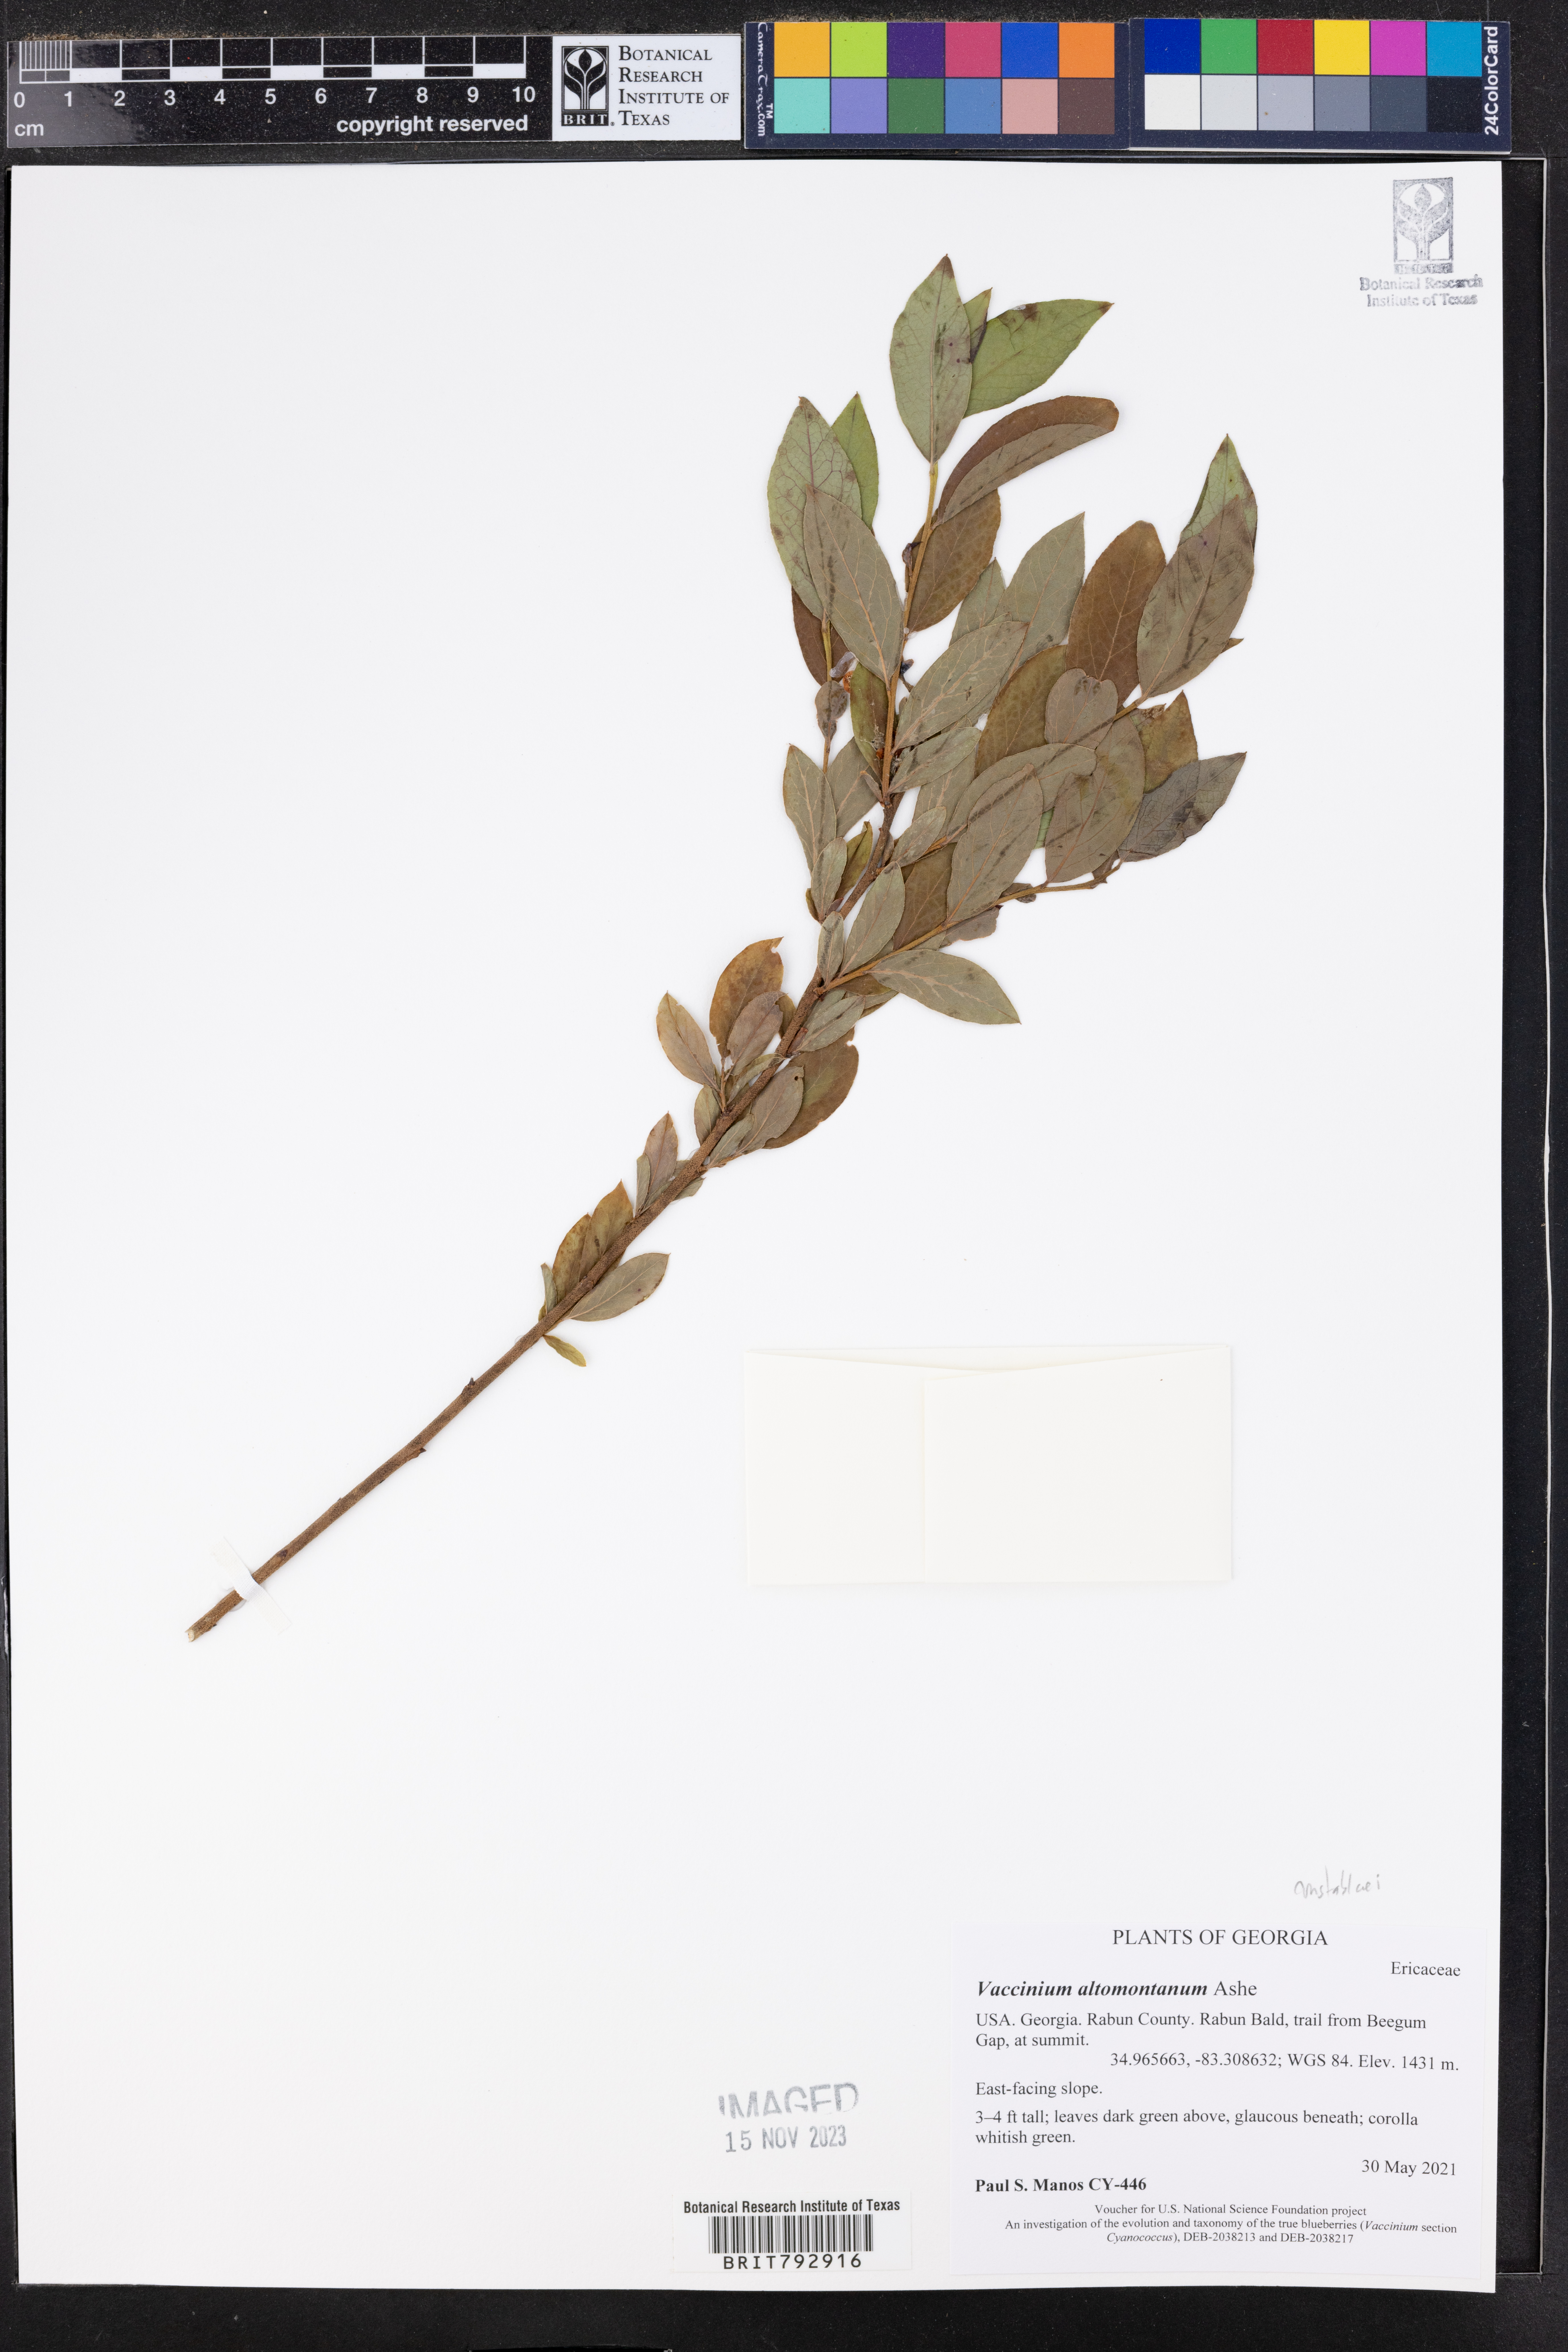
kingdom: Plantae
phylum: Tracheophyta
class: Magnoliopsida
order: Ericales
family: Ericaceae
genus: Vaccinium
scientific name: Vaccinium pallidum
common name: Blue ridge blueberry
